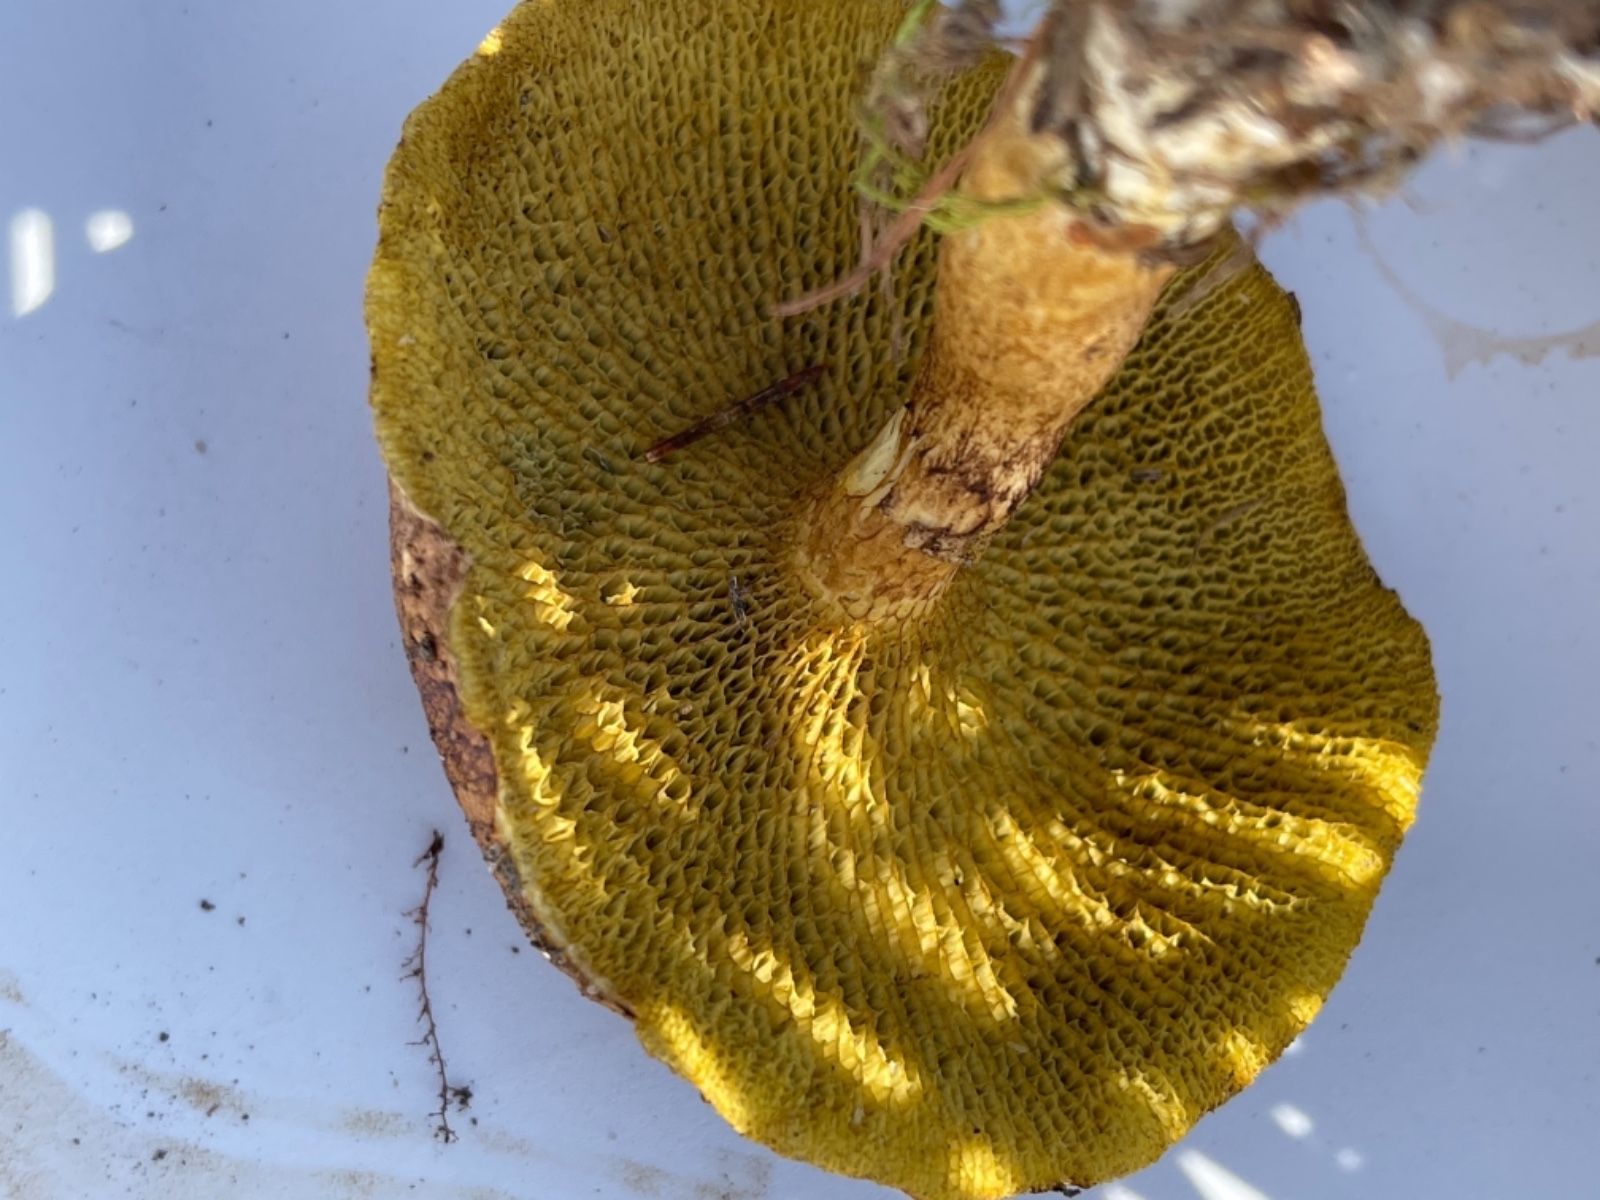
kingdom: Fungi
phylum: Basidiomycota
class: Agaricomycetes
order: Boletales
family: Suillaceae
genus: Suillus
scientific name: Suillus cavipes
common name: hulstokket slimrørhat
